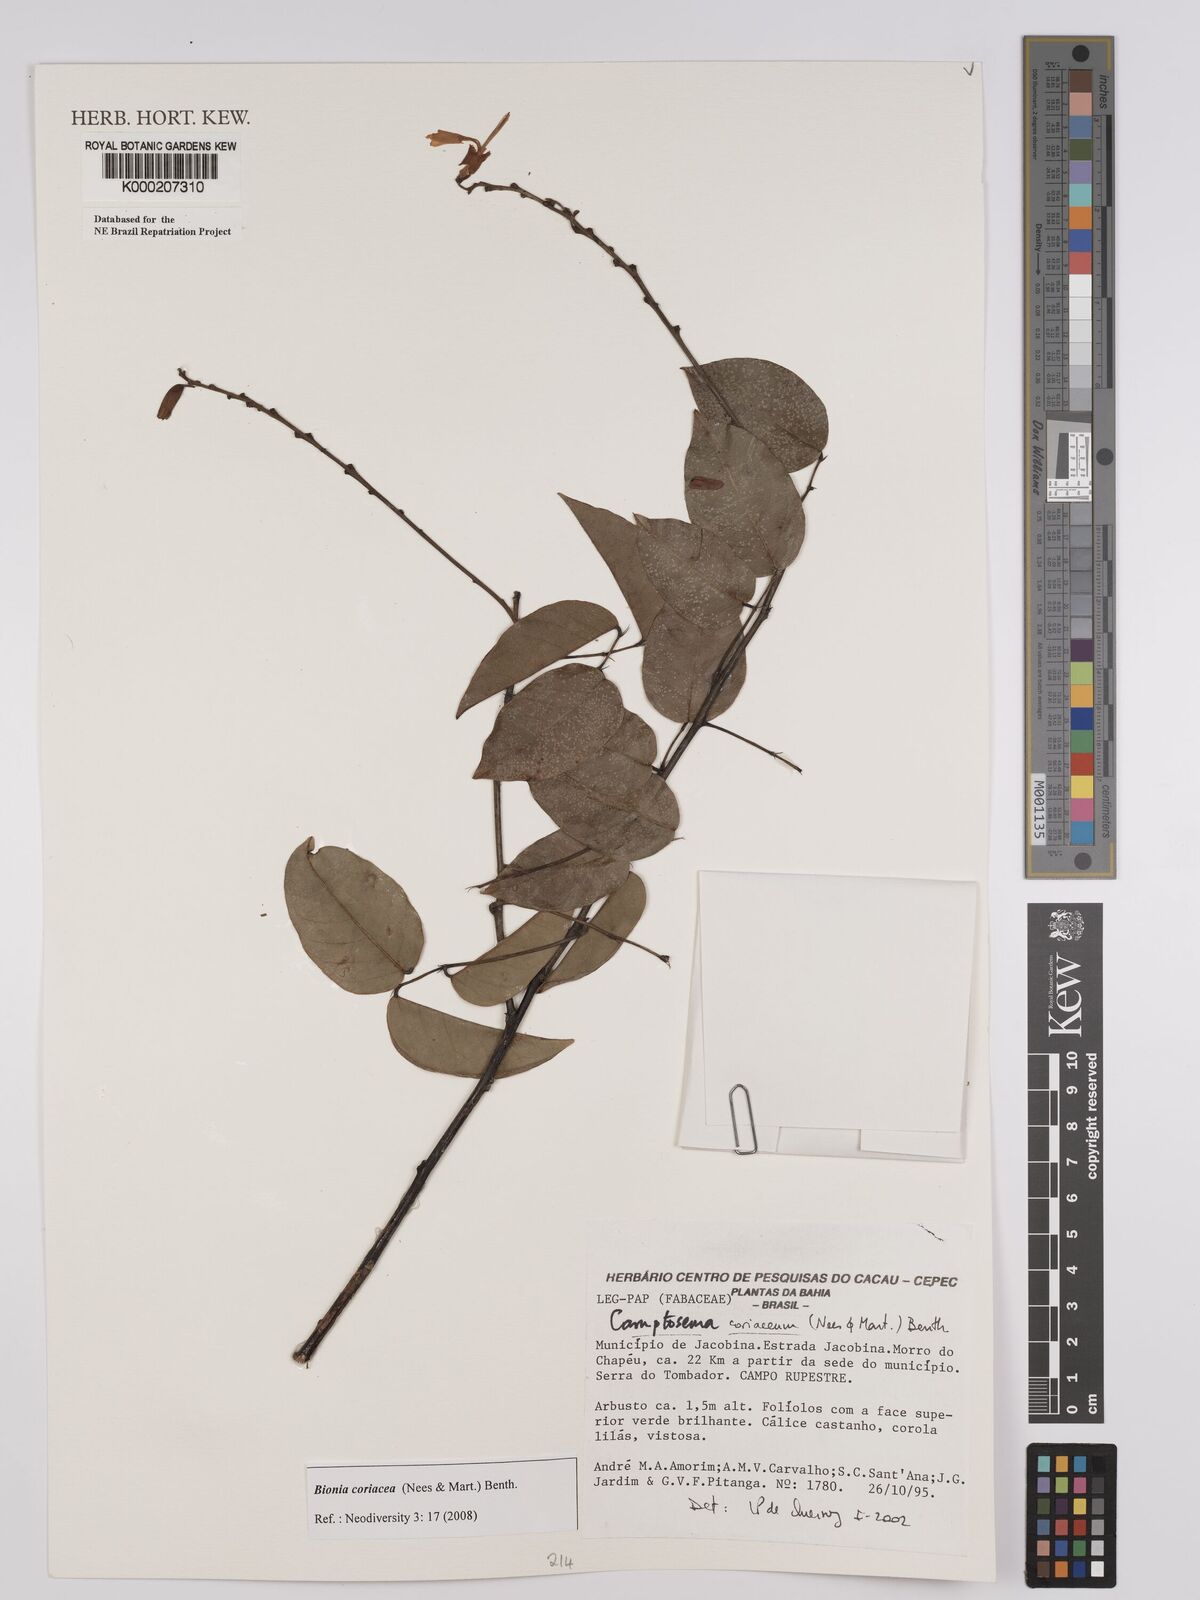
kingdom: Plantae
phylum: Tracheophyta
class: Magnoliopsida
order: Fabales
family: Fabaceae
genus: Camptosema
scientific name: Camptosema coriaceum
